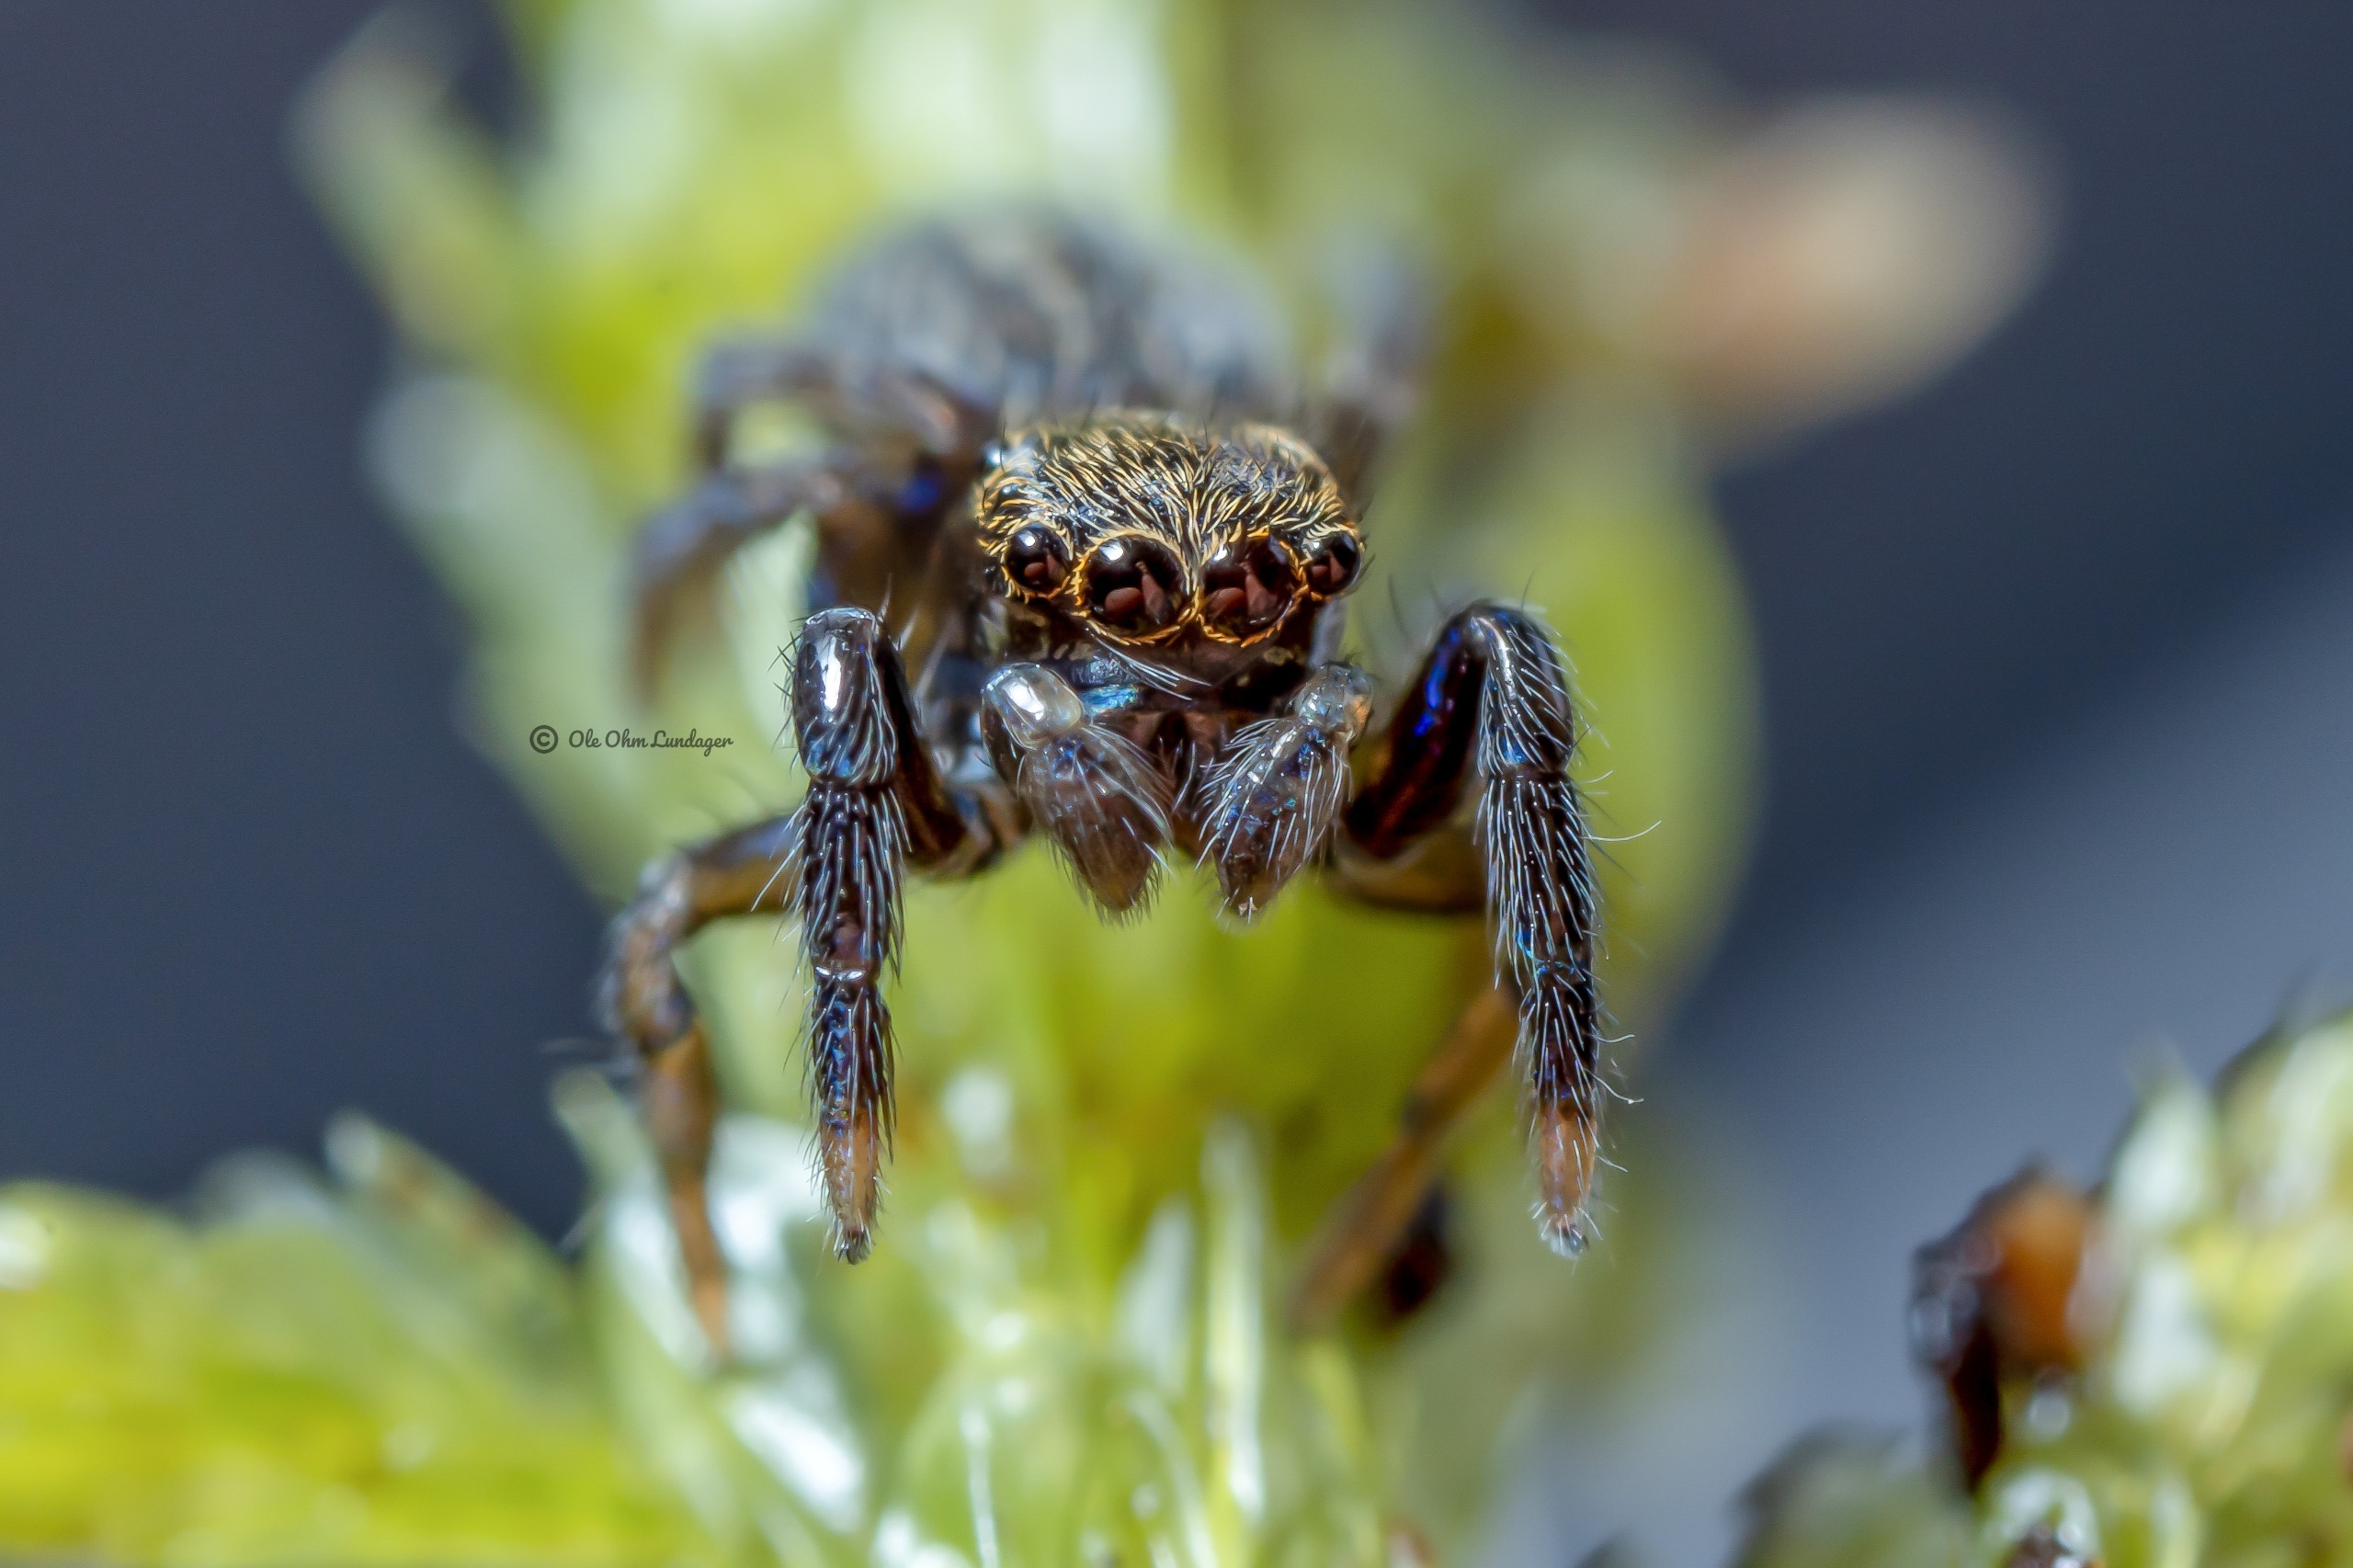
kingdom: Animalia
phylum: Arthropoda
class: Arachnida
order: Araneae
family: Salticidae
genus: Euophrys
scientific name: Euophrys frontalis
